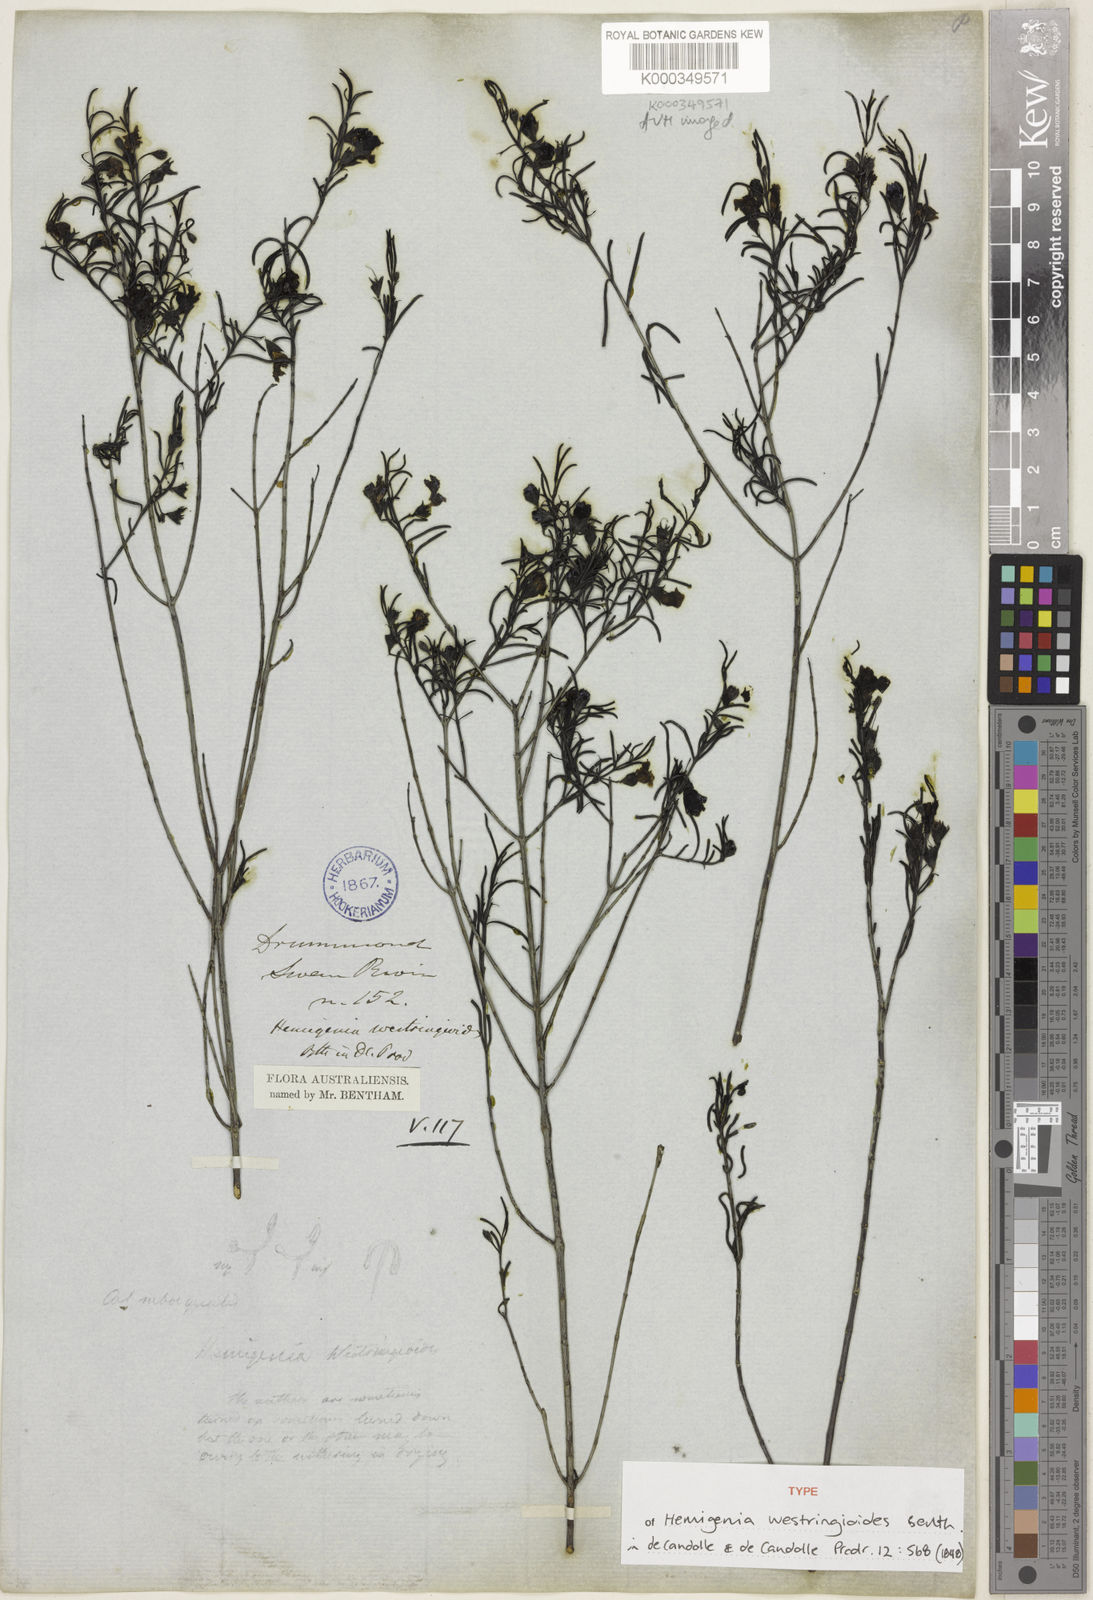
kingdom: Plantae
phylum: Tracheophyta
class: Magnoliopsida
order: Lamiales
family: Lamiaceae
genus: Hemigenia
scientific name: Hemigenia westringioides
